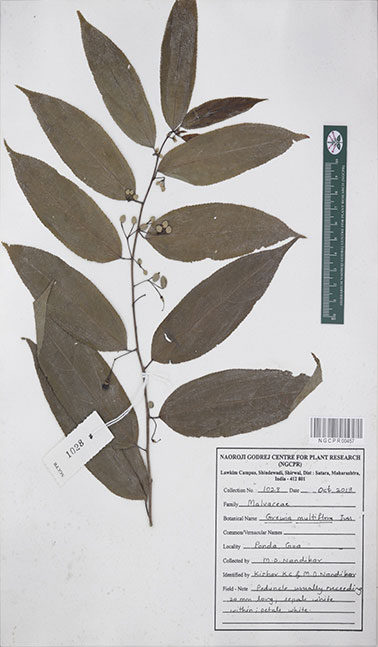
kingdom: Plantae
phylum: Tracheophyta
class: Magnoliopsida
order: Malvales
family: Malvaceae
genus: Grewia
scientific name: Grewia multiflora
